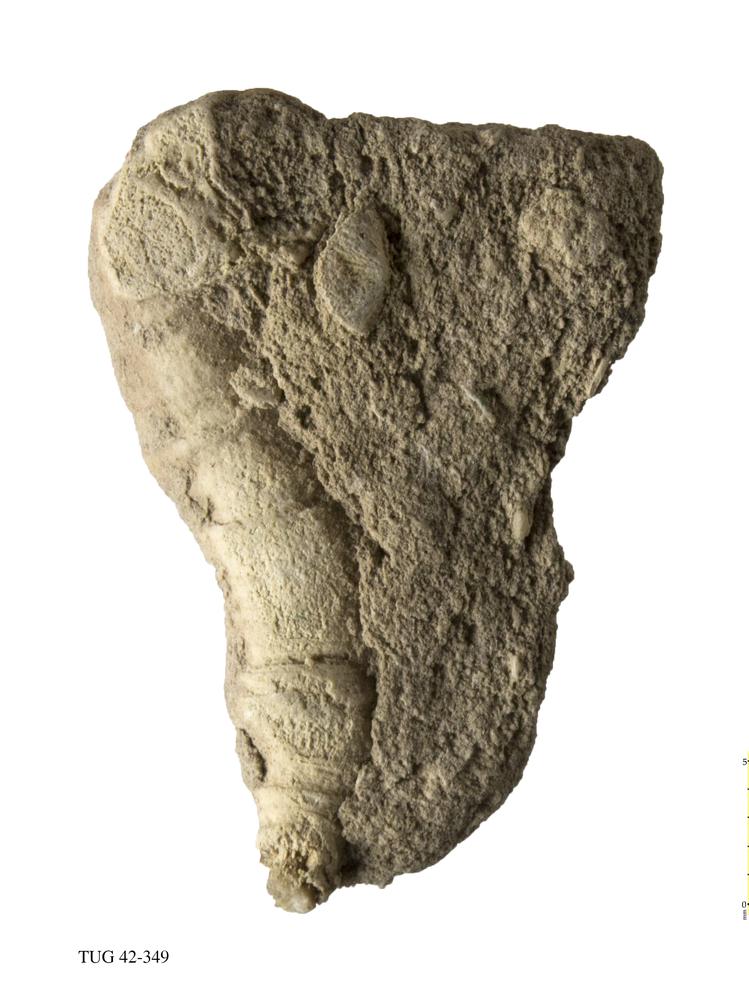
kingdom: Animalia
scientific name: Animalia
